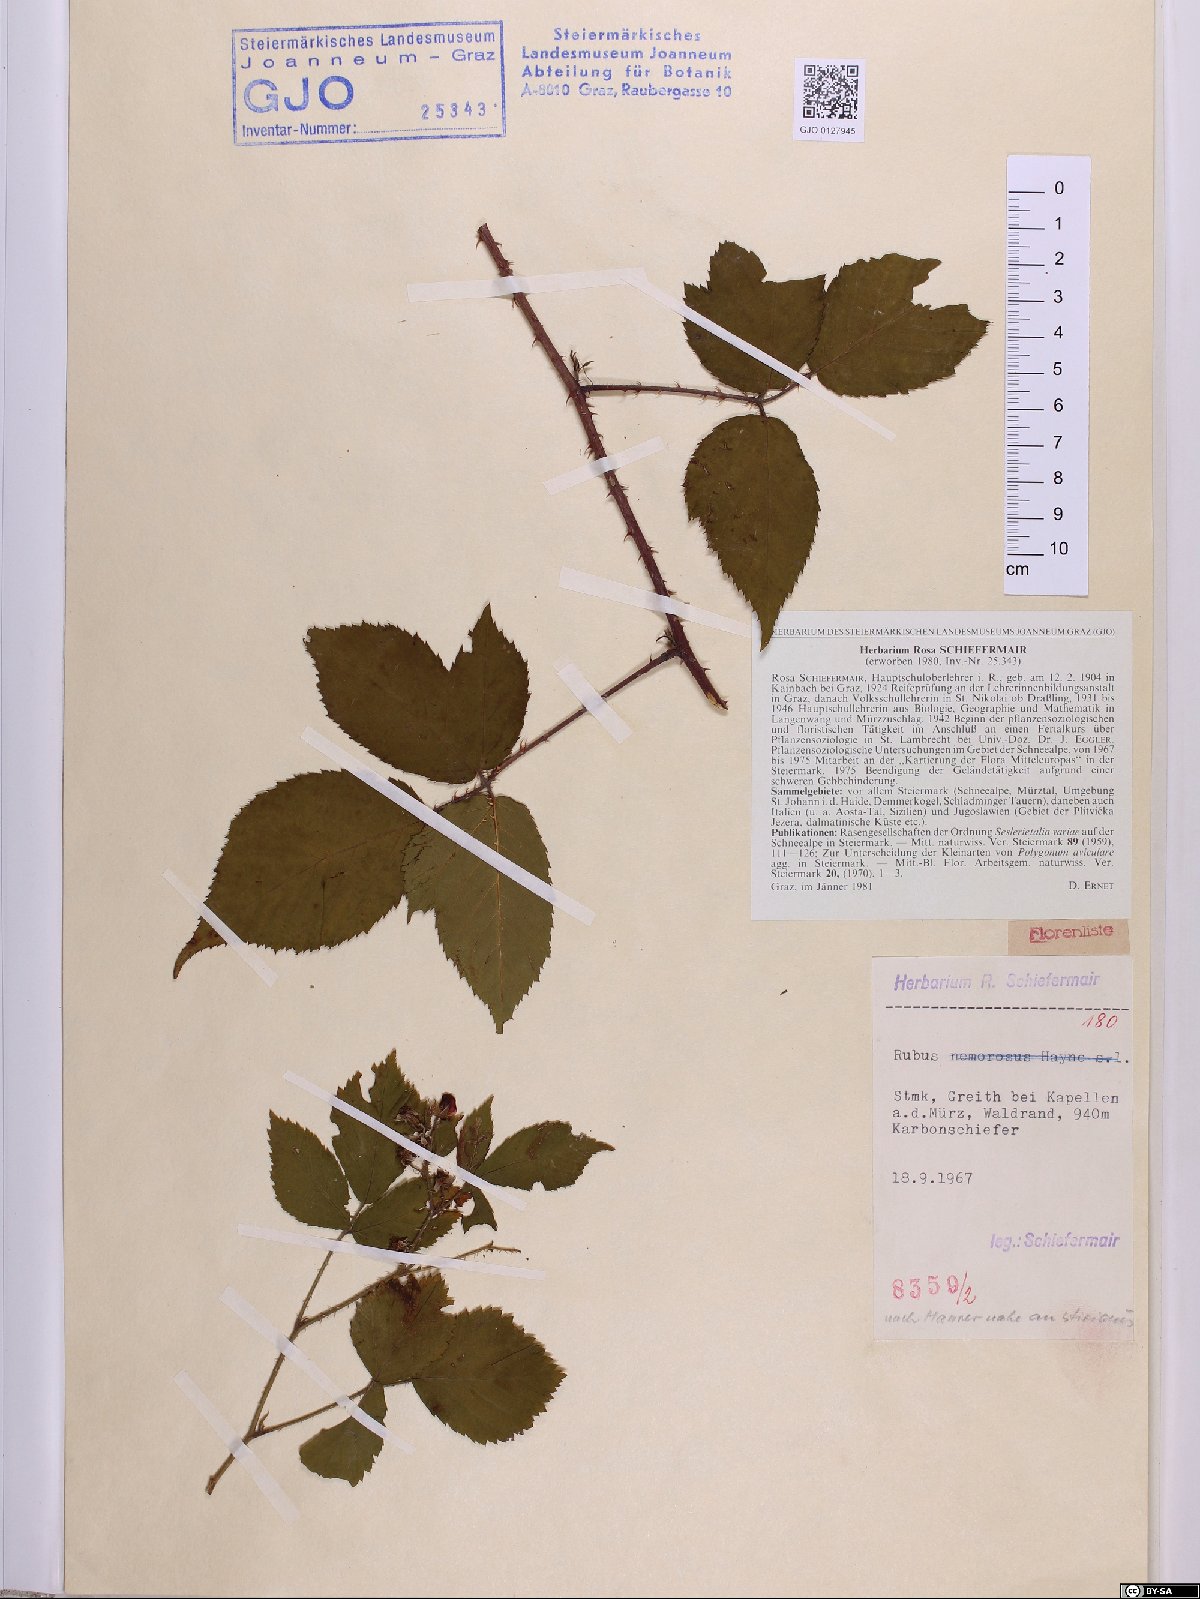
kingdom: Plantae
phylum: Tracheophyta
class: Magnoliopsida
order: Rosales
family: Rosaceae
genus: Rubus
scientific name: Rubus styriacus
